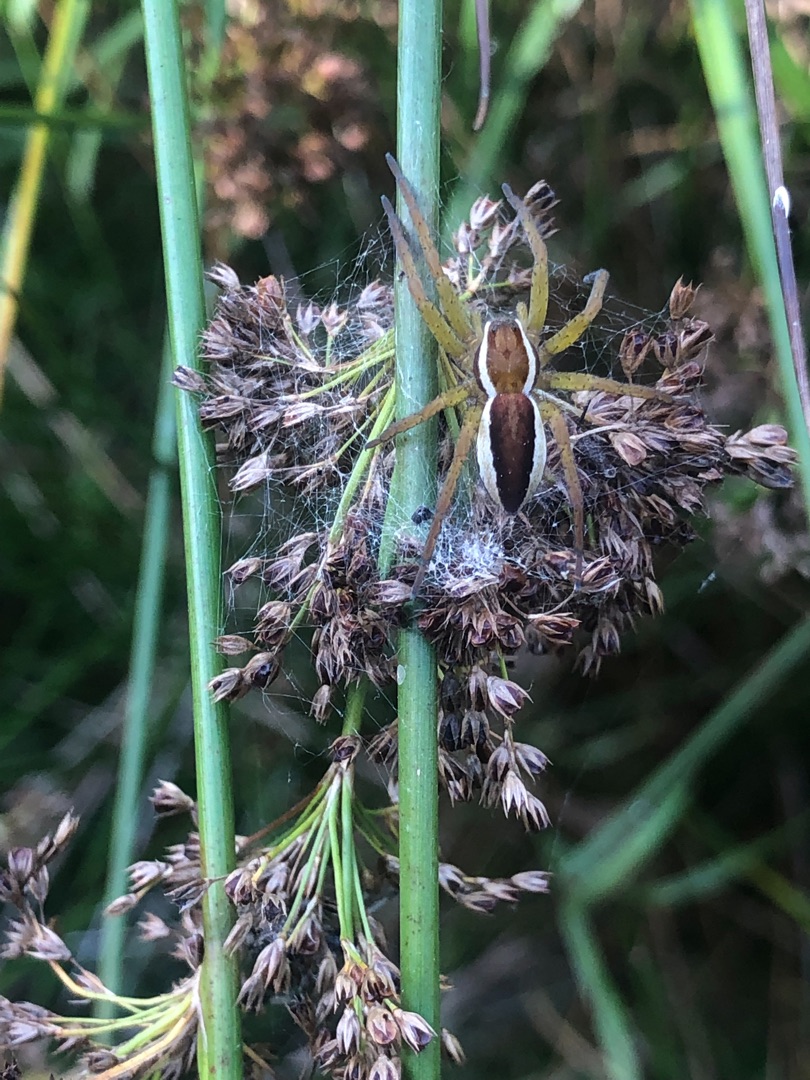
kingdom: Animalia
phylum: Arthropoda
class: Arachnida
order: Araneae
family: Pisauridae
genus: Dolomedes
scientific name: Dolomedes fimbriatus
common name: Stor rovedderkop
